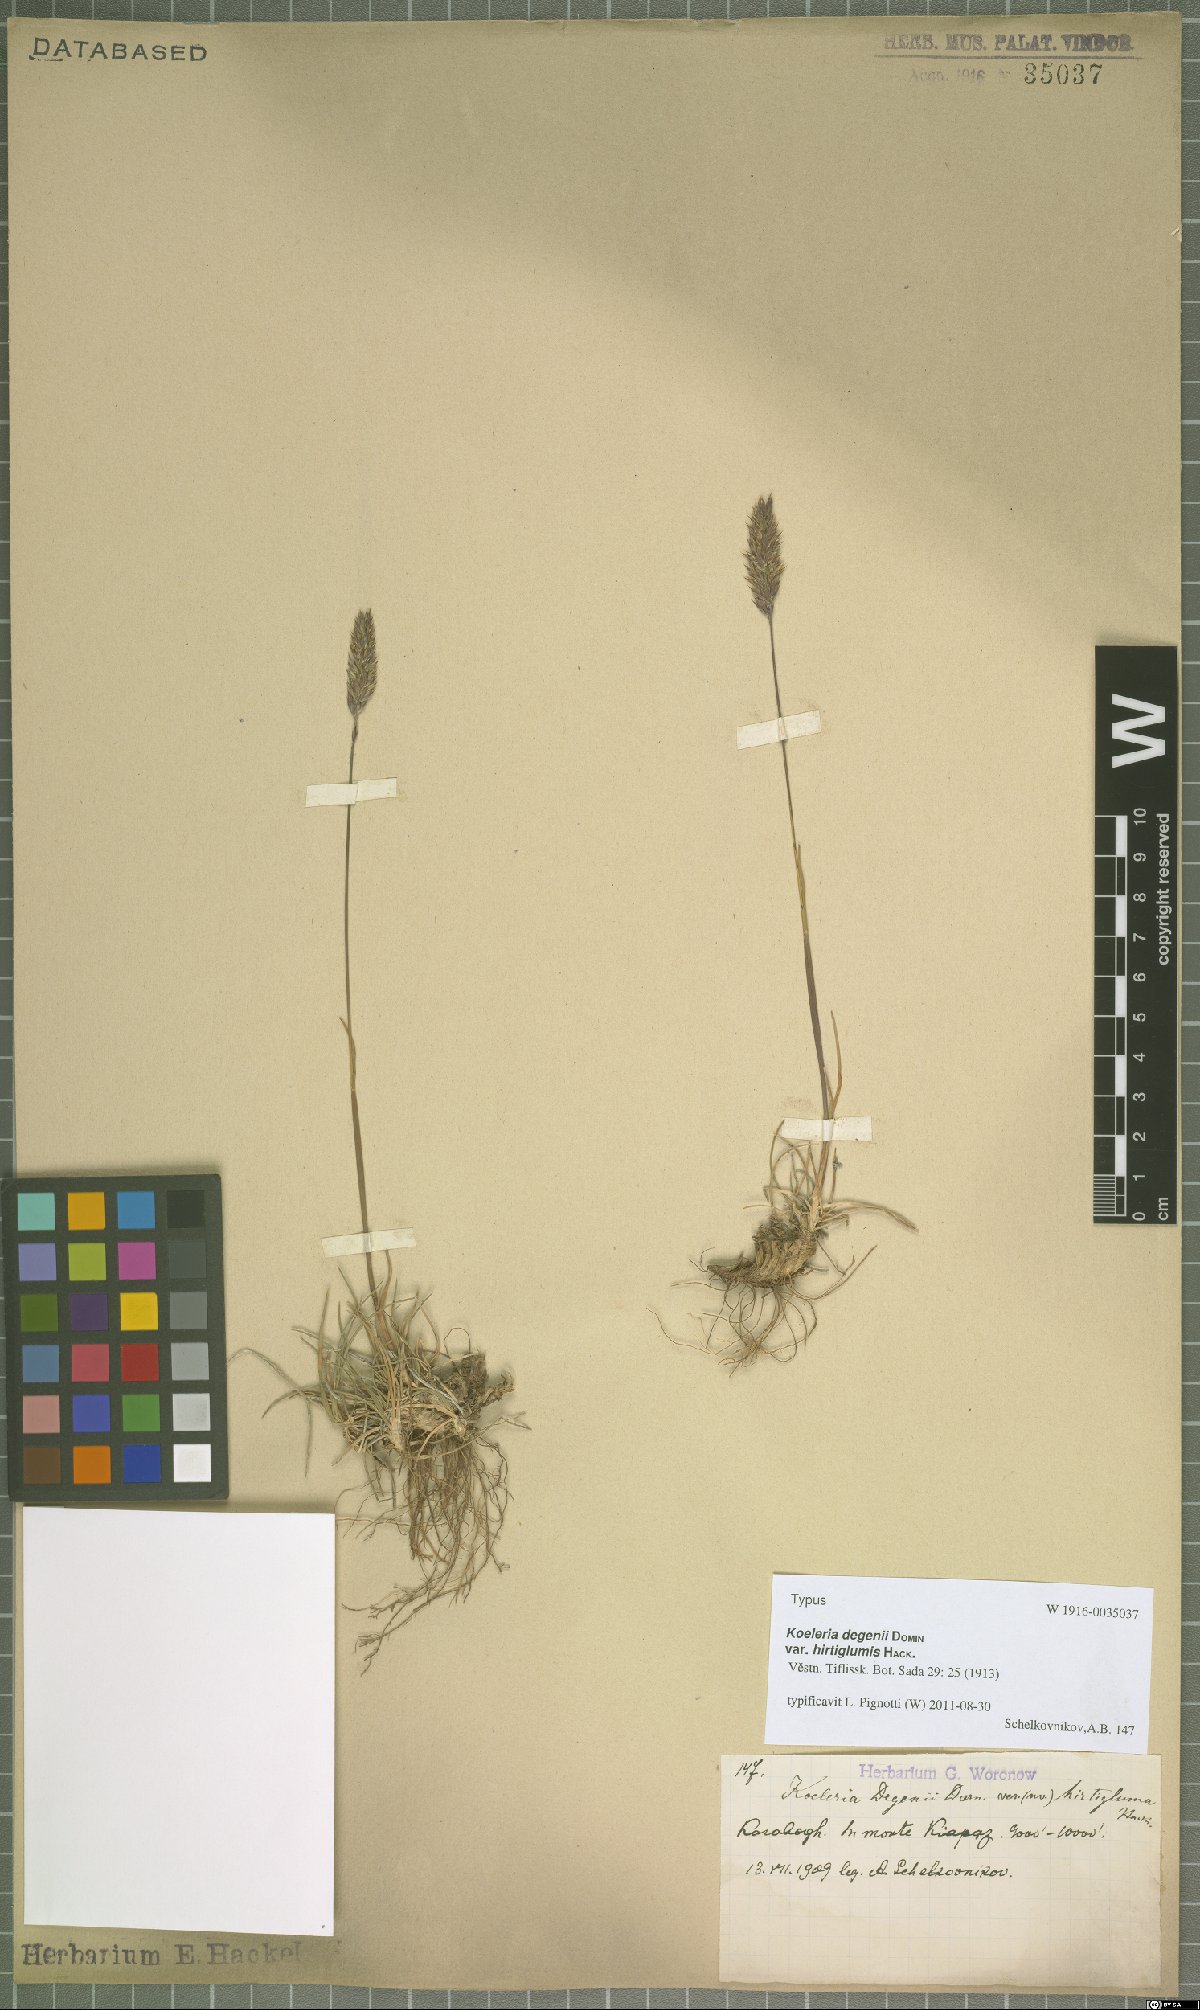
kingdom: Plantae
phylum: Tracheophyta
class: Liliopsida
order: Poales
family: Poaceae
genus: Koeleria
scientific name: Koeleria brevis
